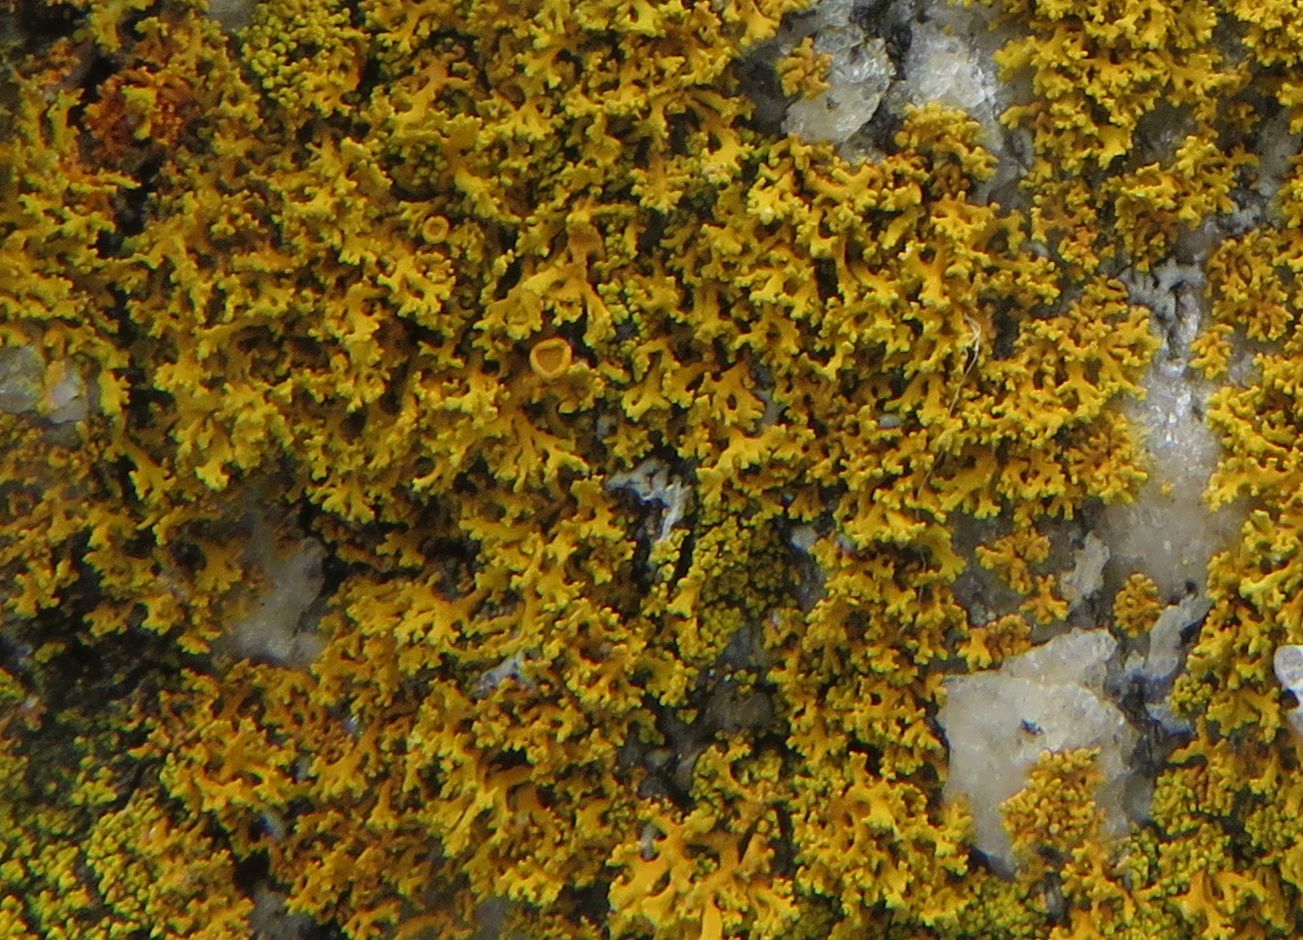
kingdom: Fungi
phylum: Ascomycota
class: Lecanoromycetes
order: Teloschistales
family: Teloschistaceae
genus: Polycauliona
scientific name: Polycauliona candelaria
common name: tue-orangelav
